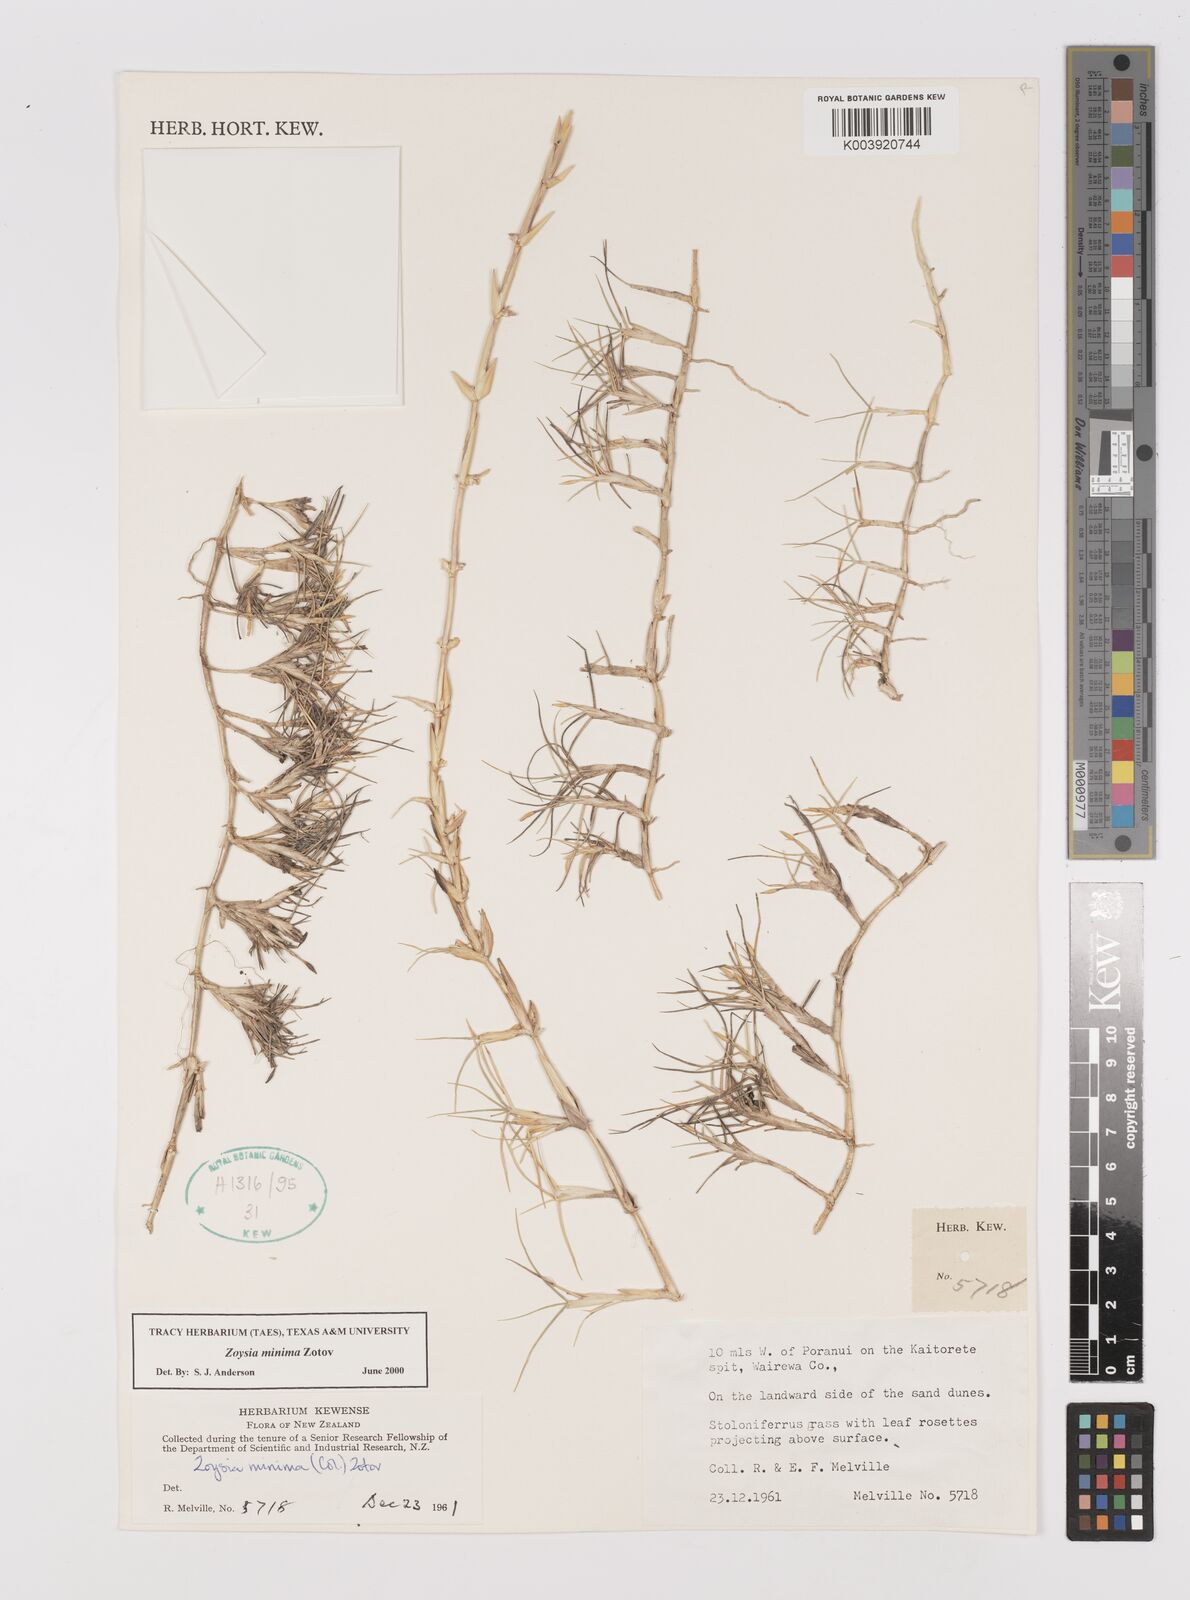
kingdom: Plantae
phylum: Tracheophyta
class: Liliopsida
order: Poales
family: Poaceae
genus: Zoysia
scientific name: Zoysia minima
